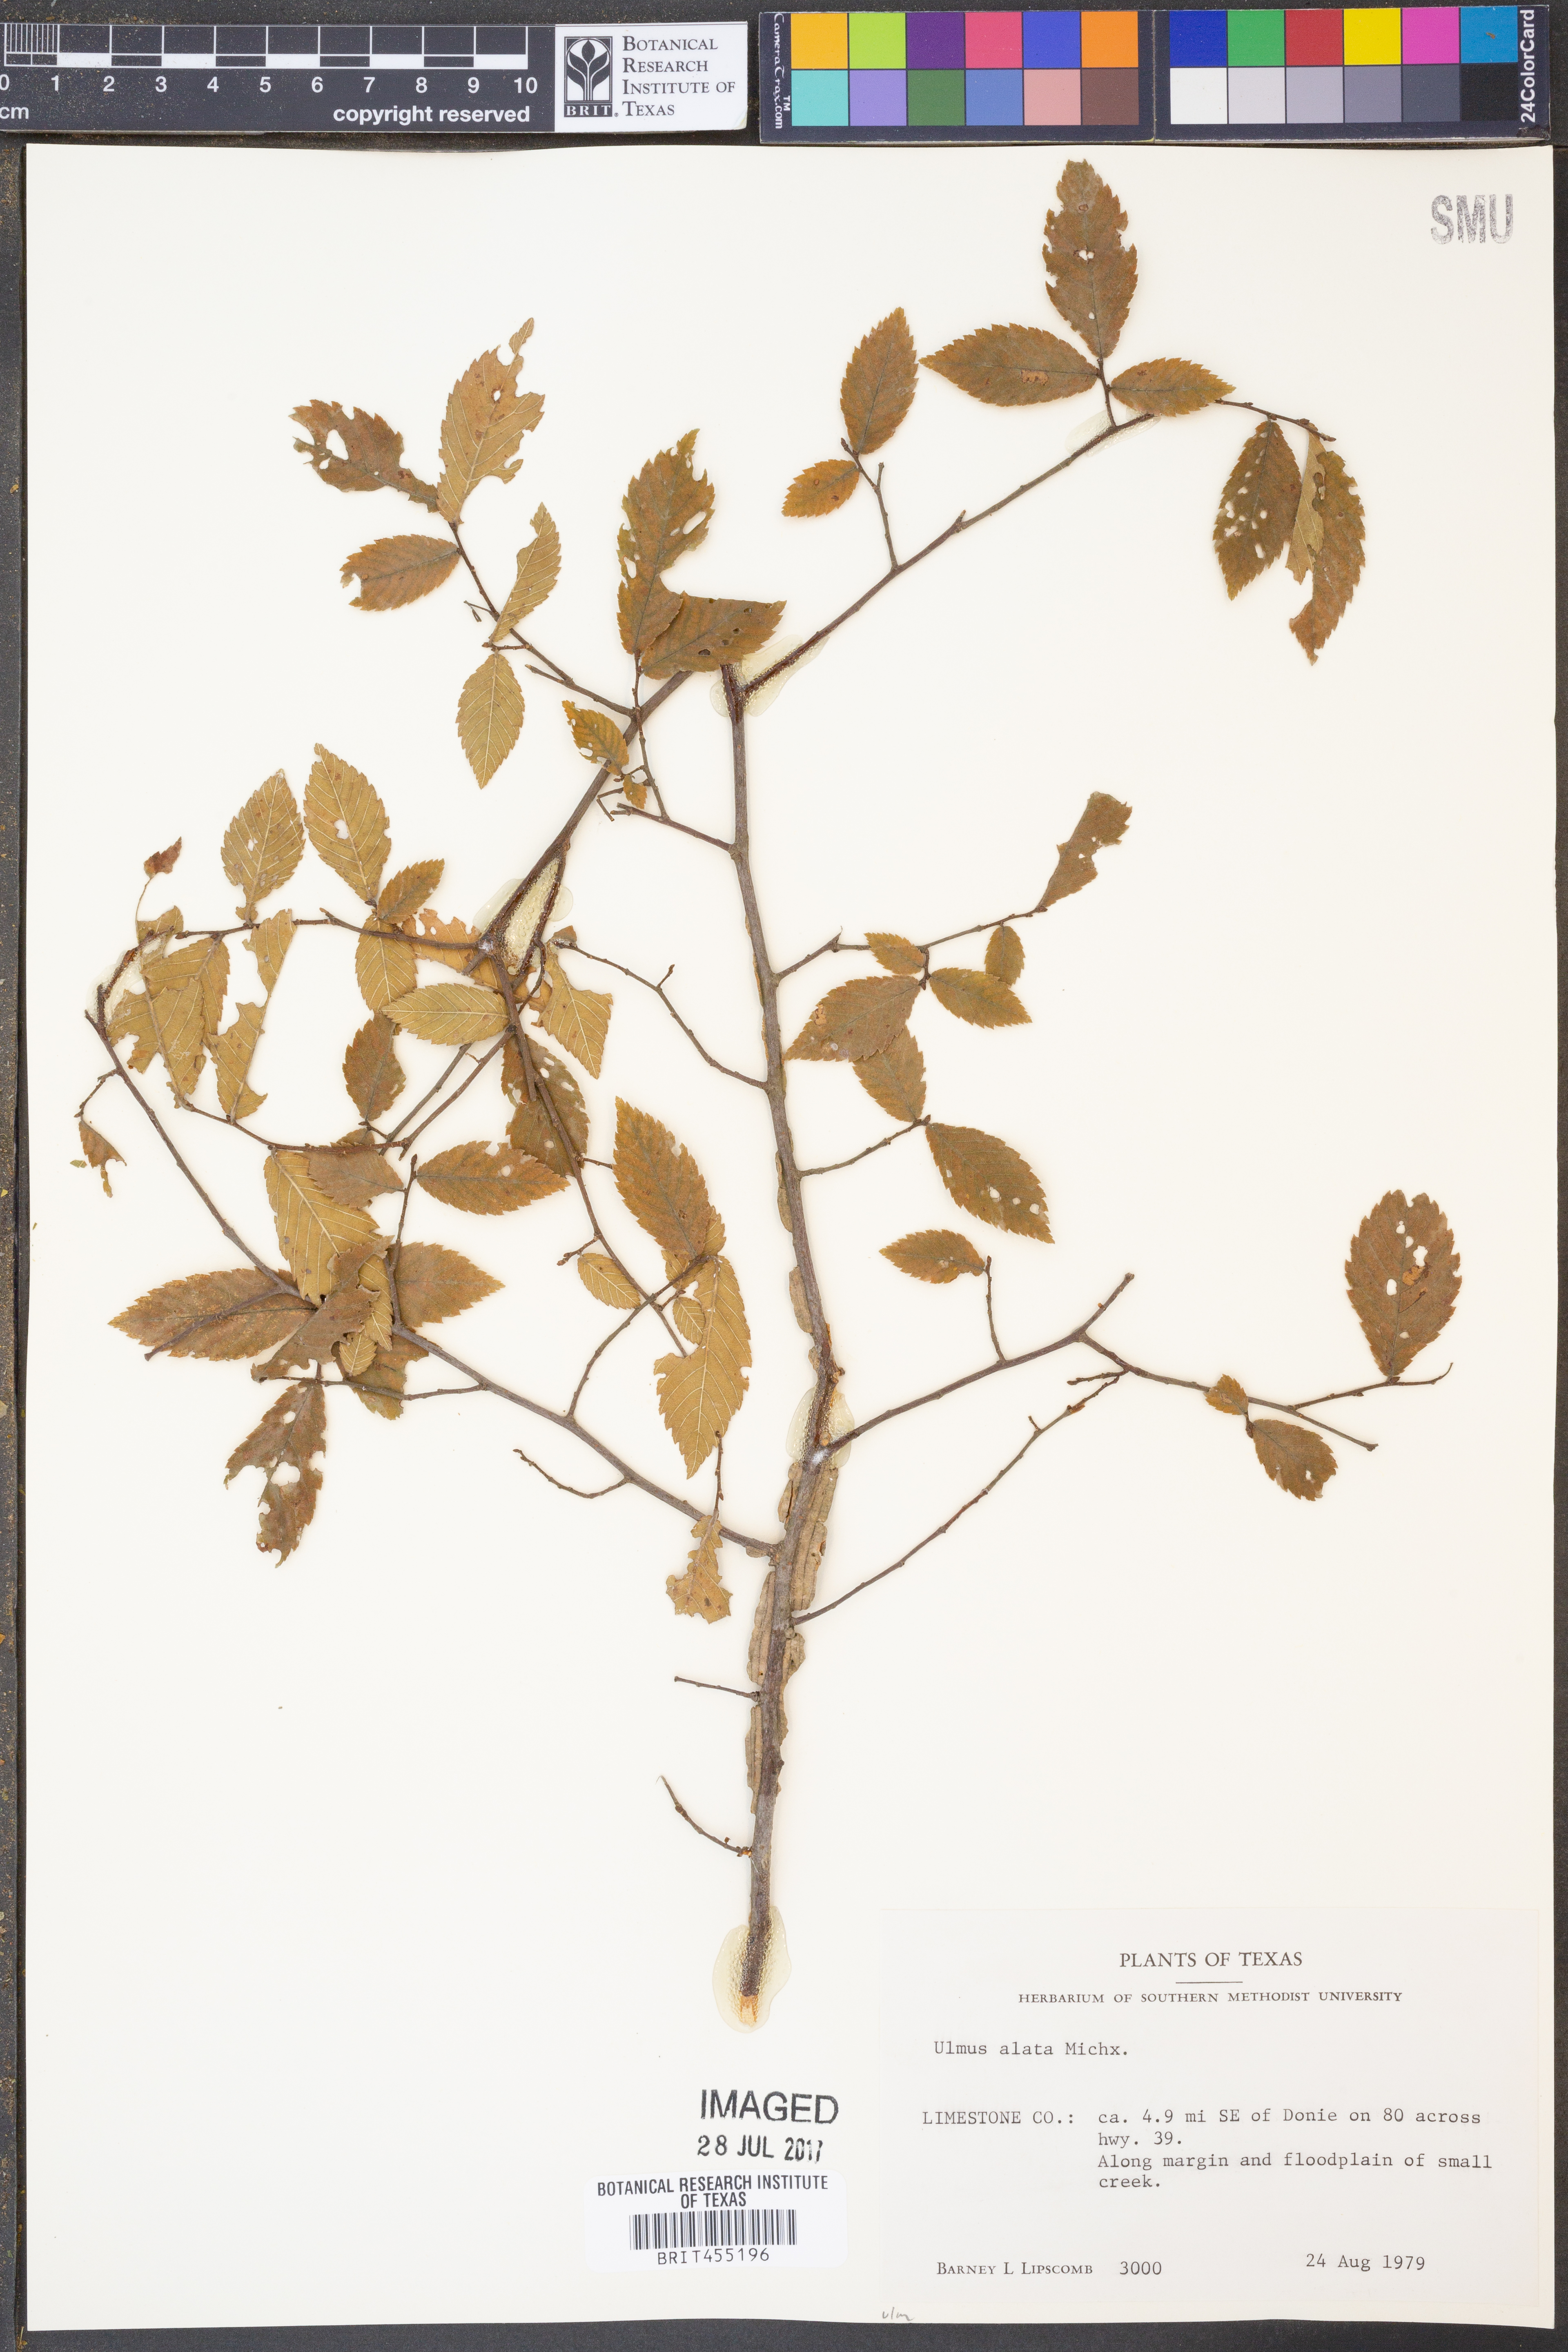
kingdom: Plantae
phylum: Tracheophyta
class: Magnoliopsida
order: Rosales
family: Ulmaceae
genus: Ulmus
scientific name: Ulmus alata
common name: Winged elm
